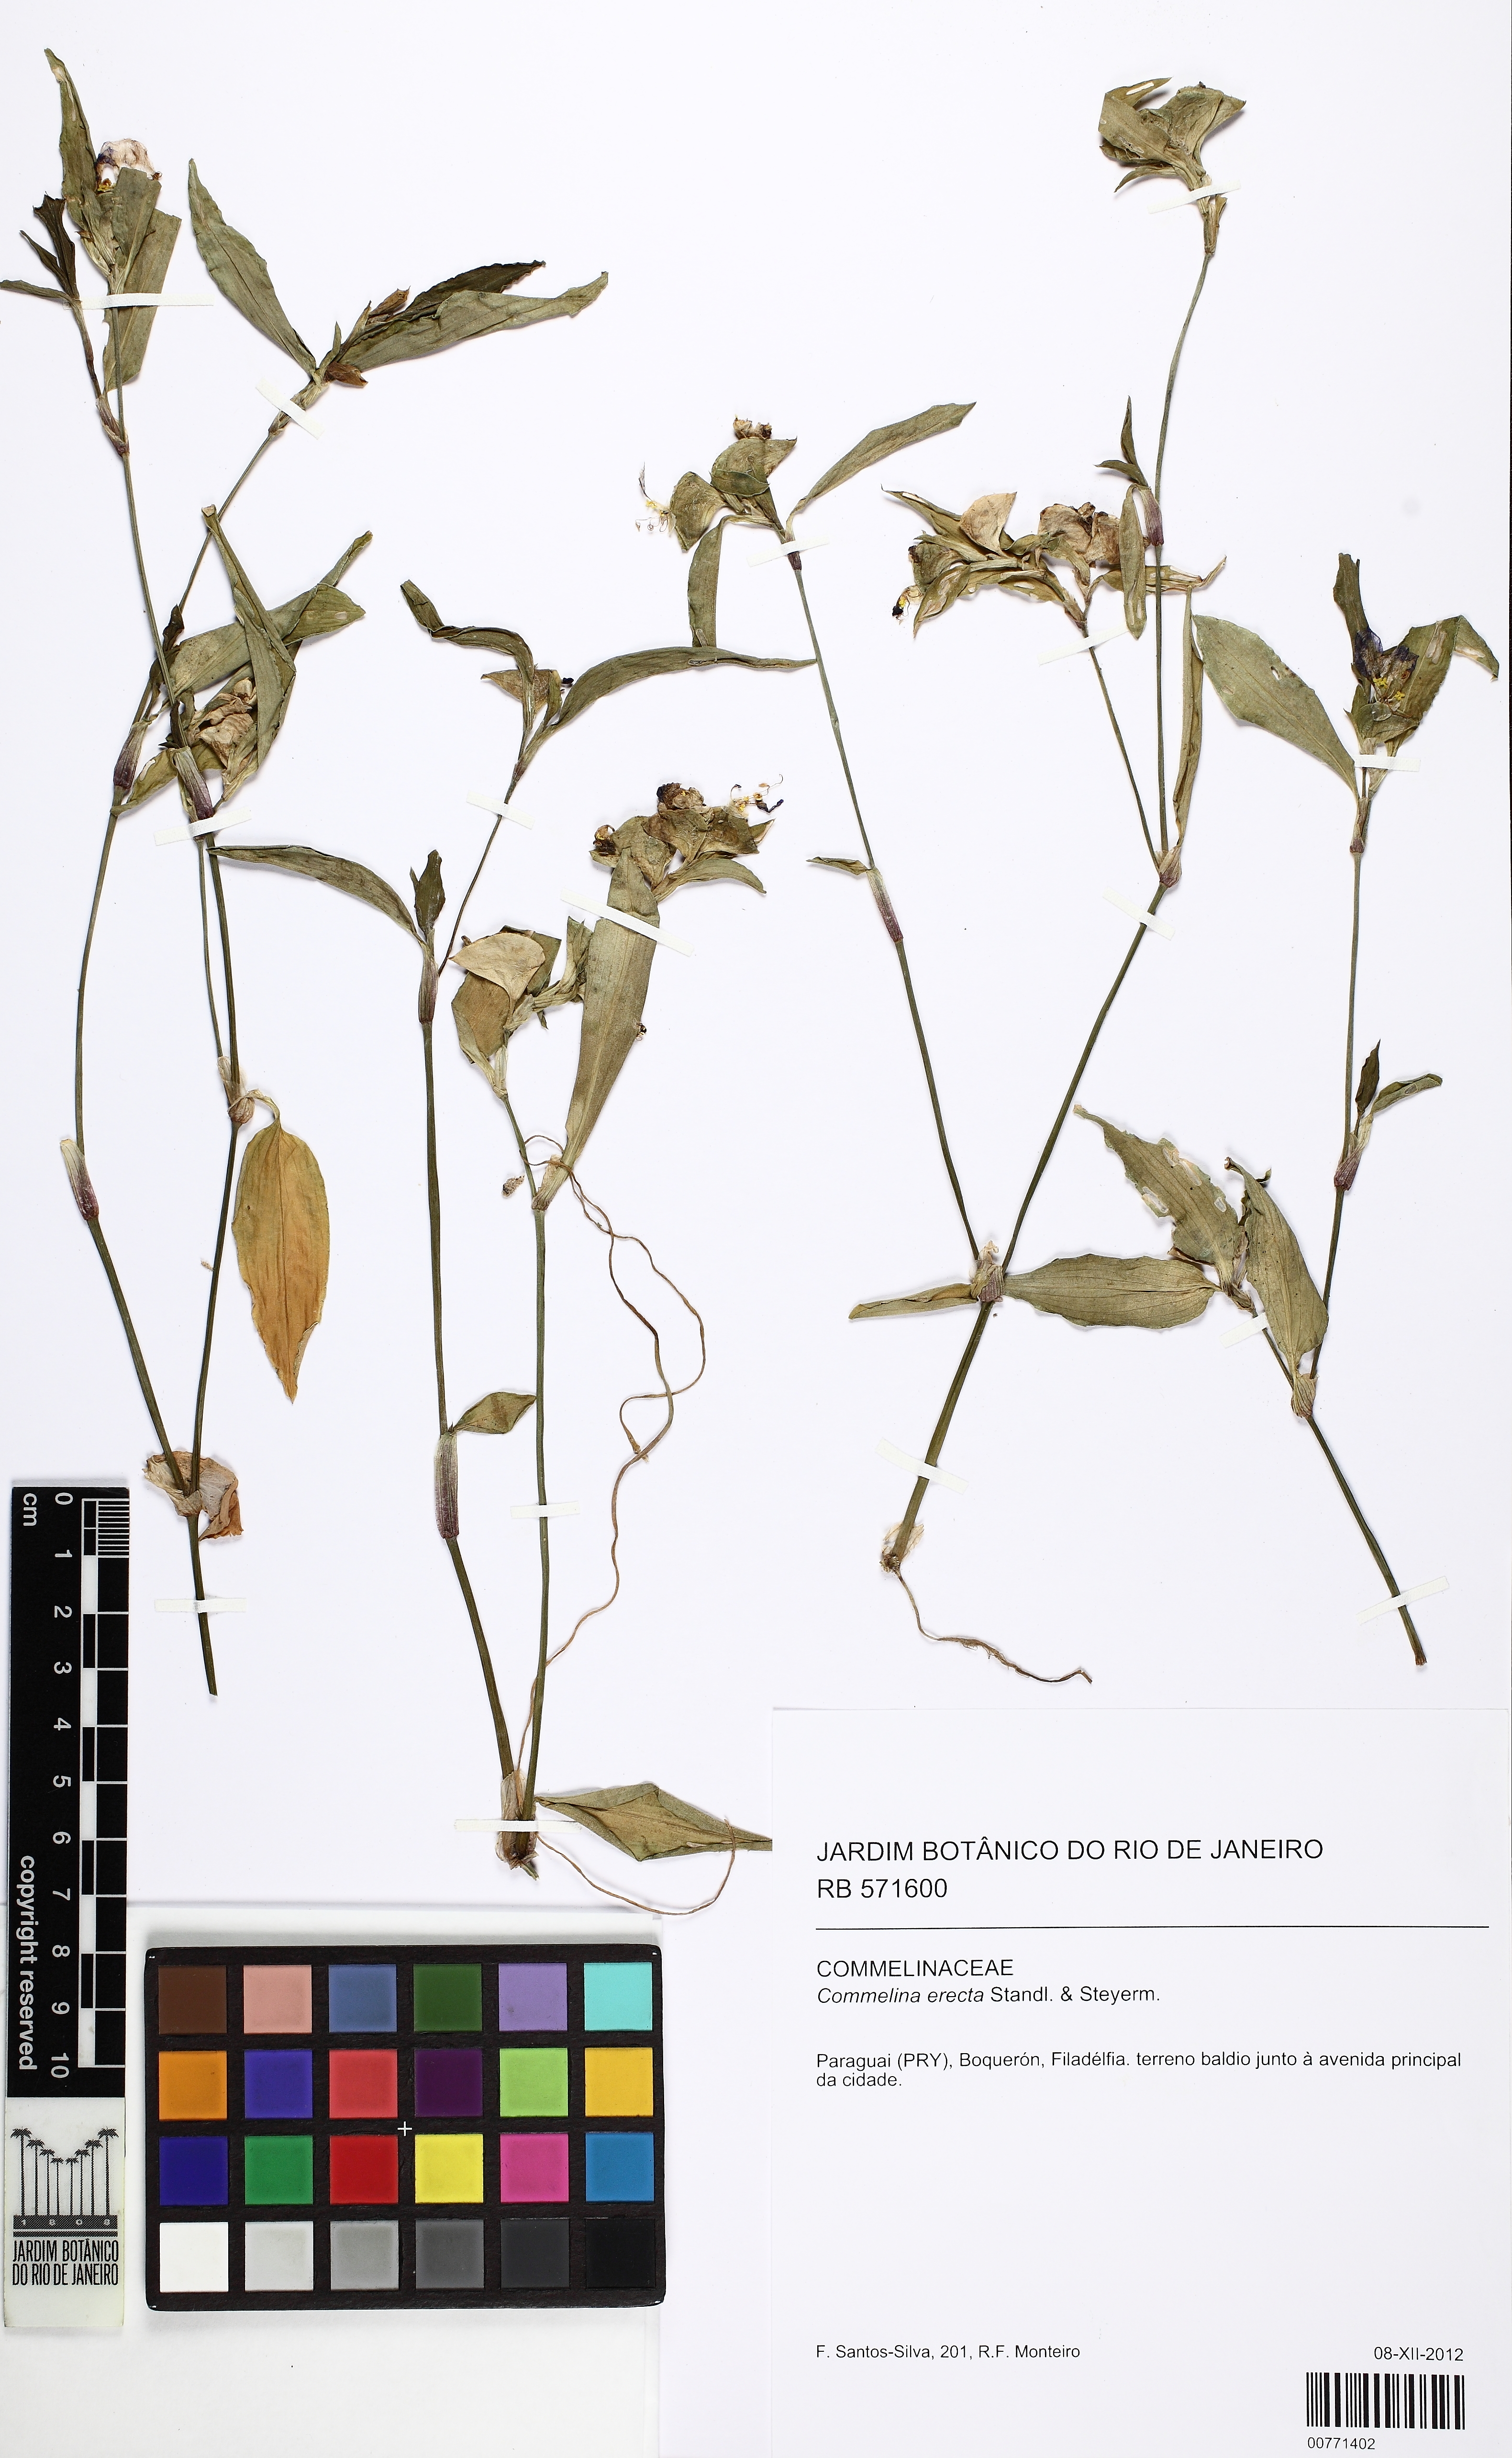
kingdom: Plantae
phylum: Tracheophyta
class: Liliopsida
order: Commelinales
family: Commelinaceae
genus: Commelina
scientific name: Commelina erecta
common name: Blousel blommetjie
